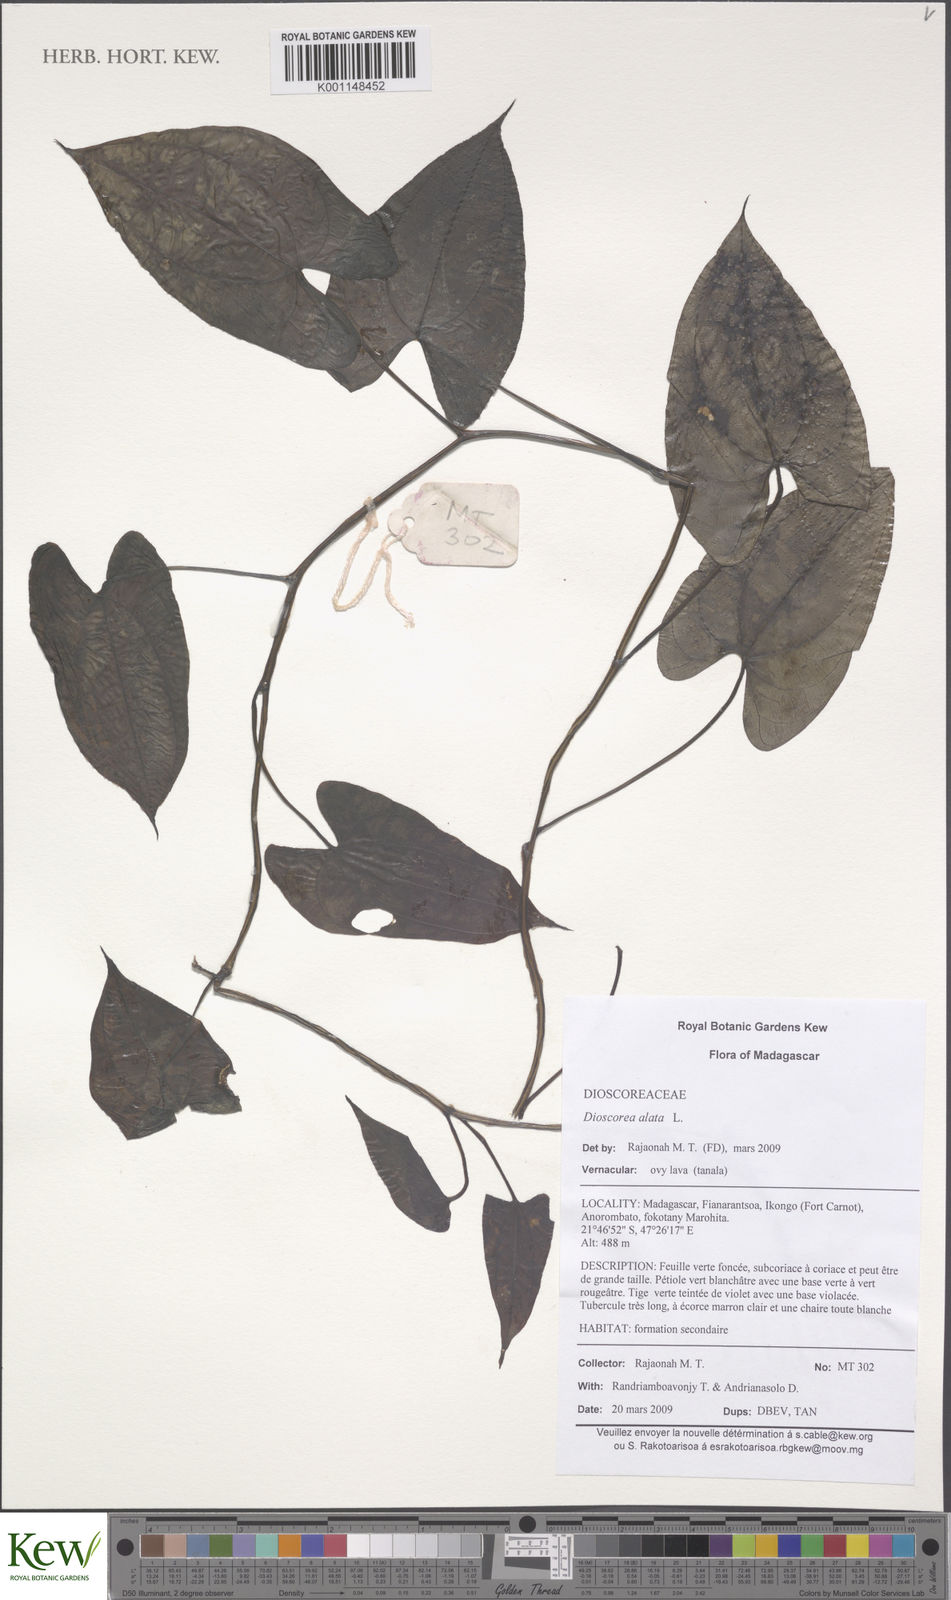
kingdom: Plantae
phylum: Tracheophyta
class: Liliopsida
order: Dioscoreales
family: Dioscoreaceae
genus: Dioscorea
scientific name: Dioscorea alata
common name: Water yam
